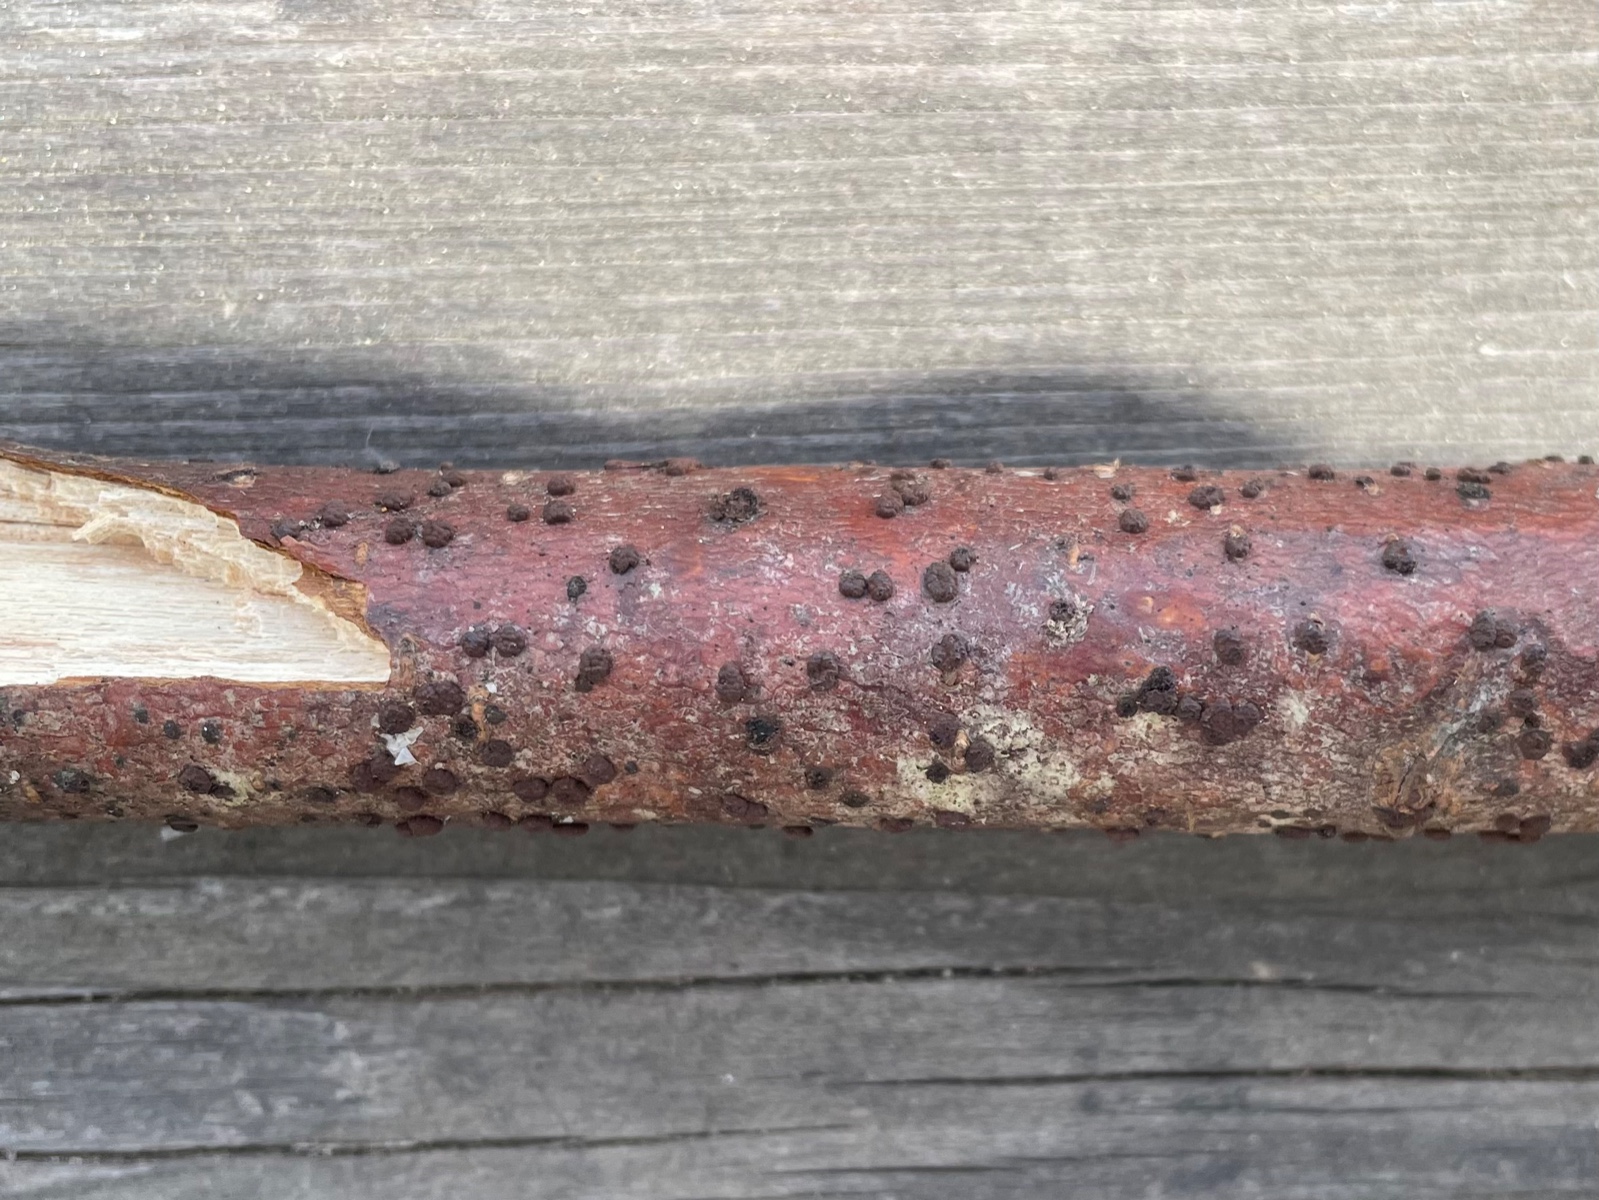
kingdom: Fungi
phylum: Ascomycota
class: Sordariomycetes
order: Xylariales
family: Hypoxylaceae
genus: Hypoxylon
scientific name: Hypoxylon fuscum
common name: kegleformet kulbær
